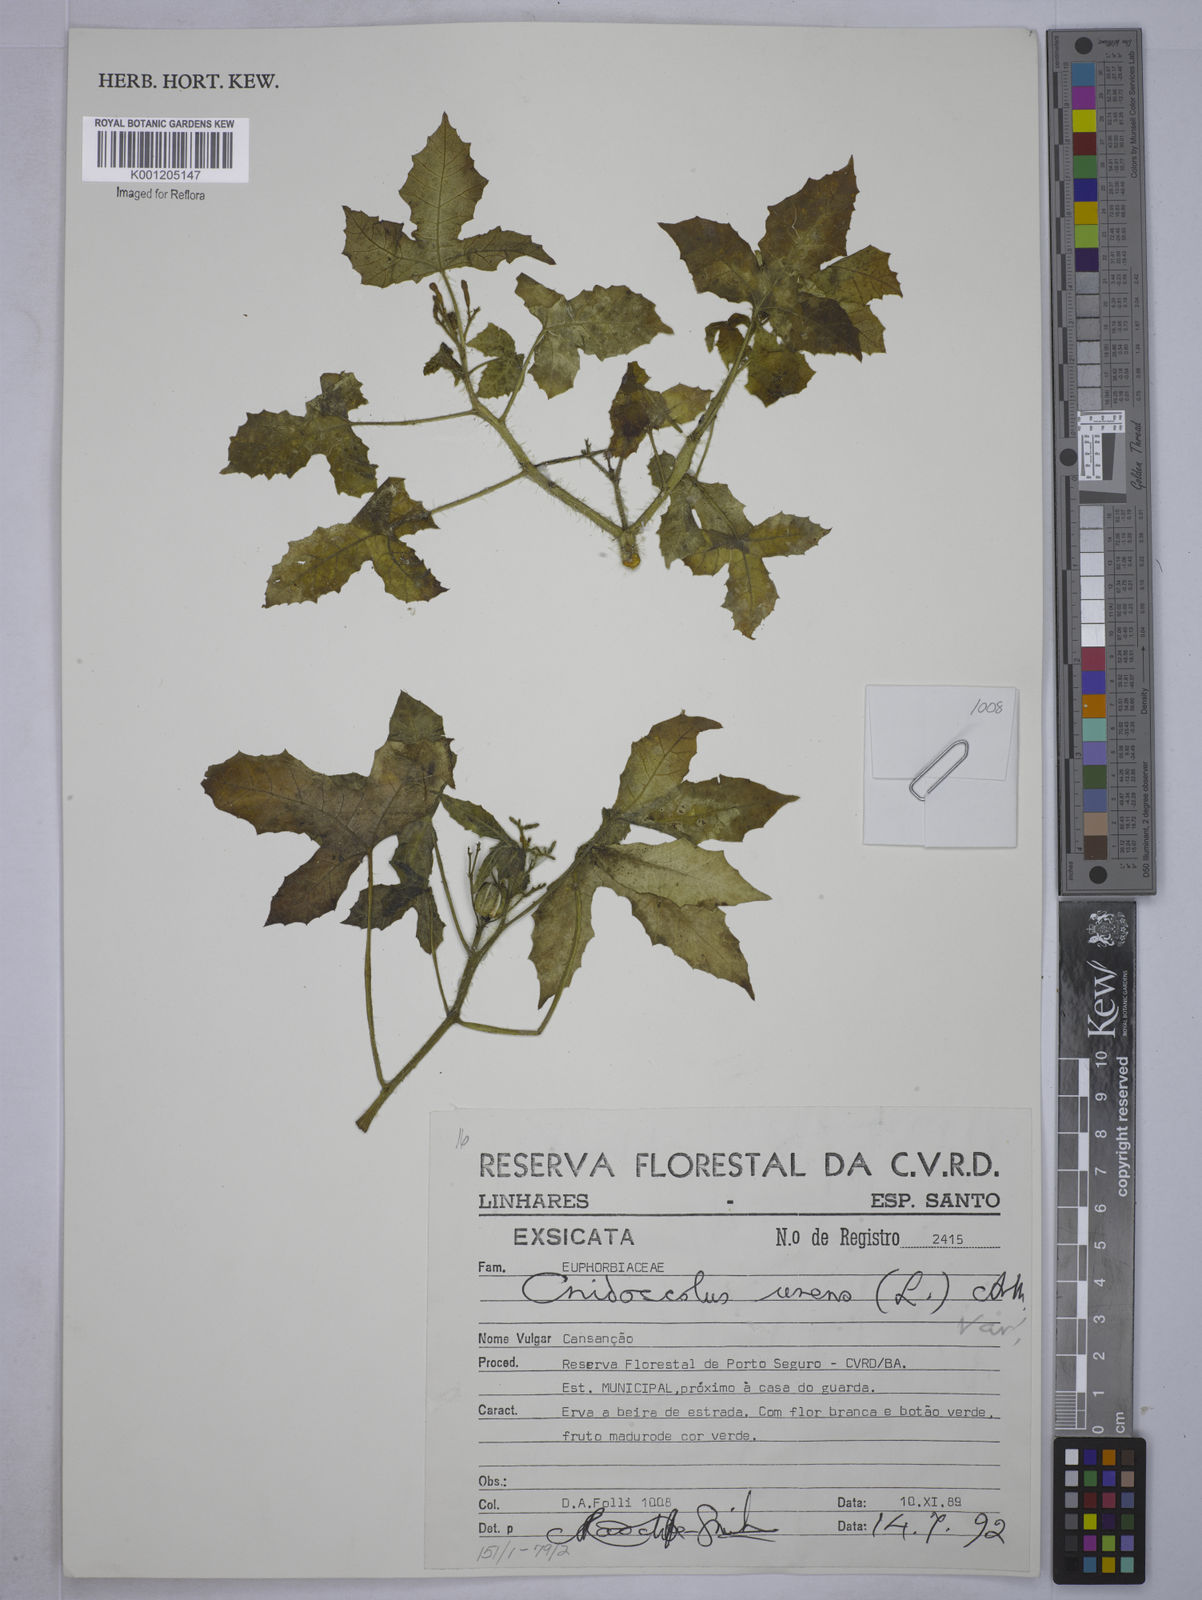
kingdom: Plantae
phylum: Tracheophyta
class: Magnoliopsida
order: Malpighiales
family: Euphorbiaceae
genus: Cnidoscolus
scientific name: Cnidoscolus urens
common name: Bull-nettle
